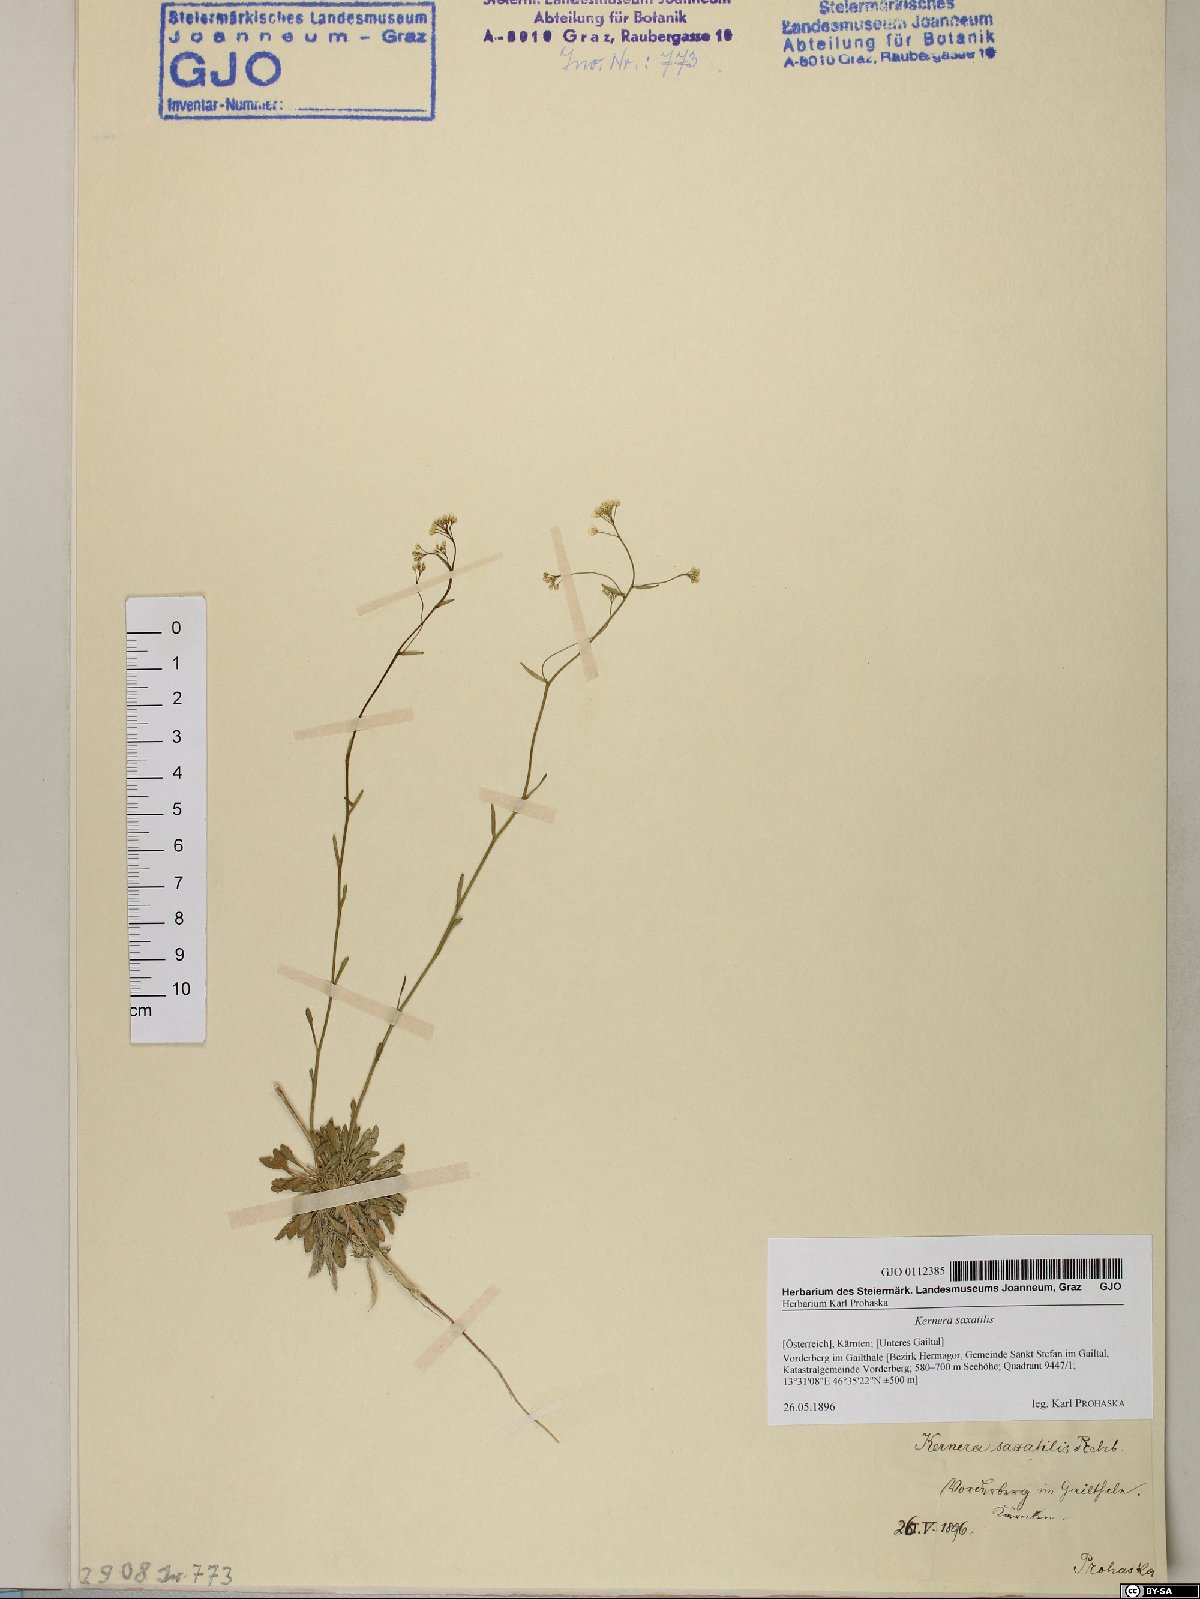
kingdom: Plantae
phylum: Tracheophyta
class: Magnoliopsida
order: Brassicales
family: Brassicaceae
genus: Kernera
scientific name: Kernera saxatilis
